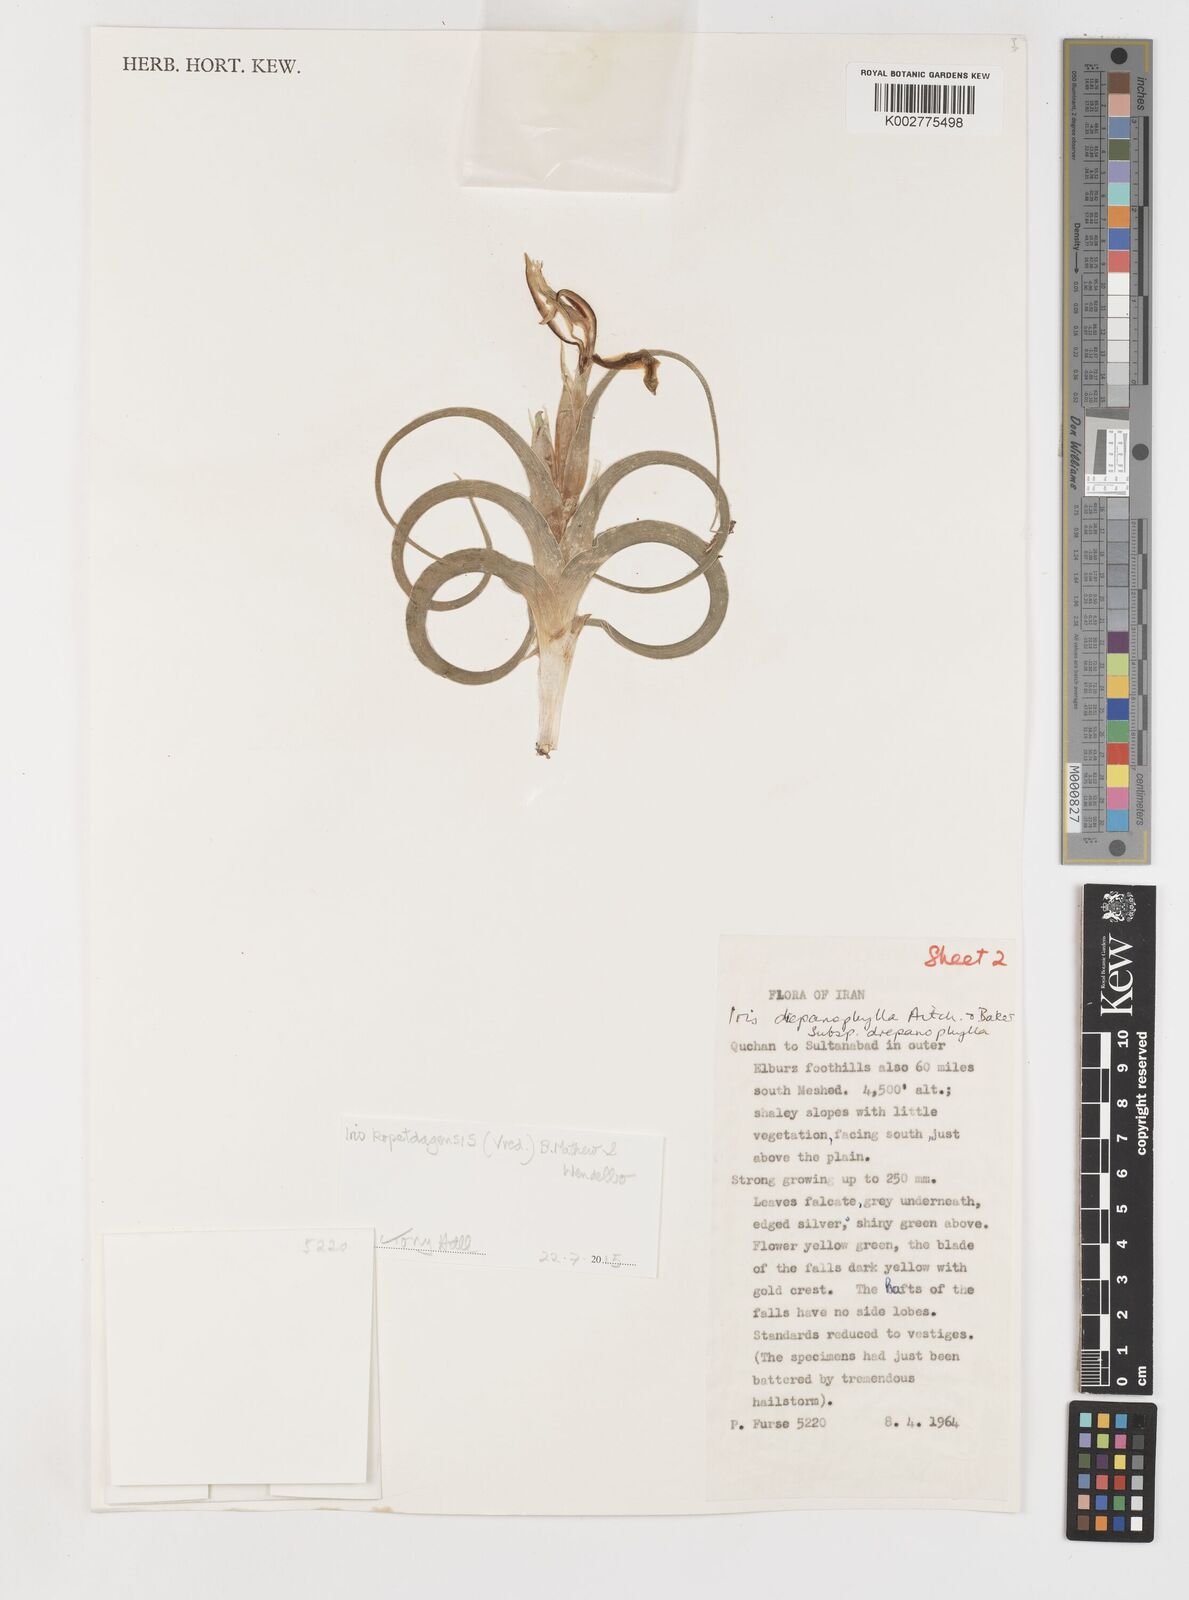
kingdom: Plantae
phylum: Tracheophyta
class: Liliopsida
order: Asparagales
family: Iridaceae
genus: Iris
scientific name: Iris kopetdagensis
